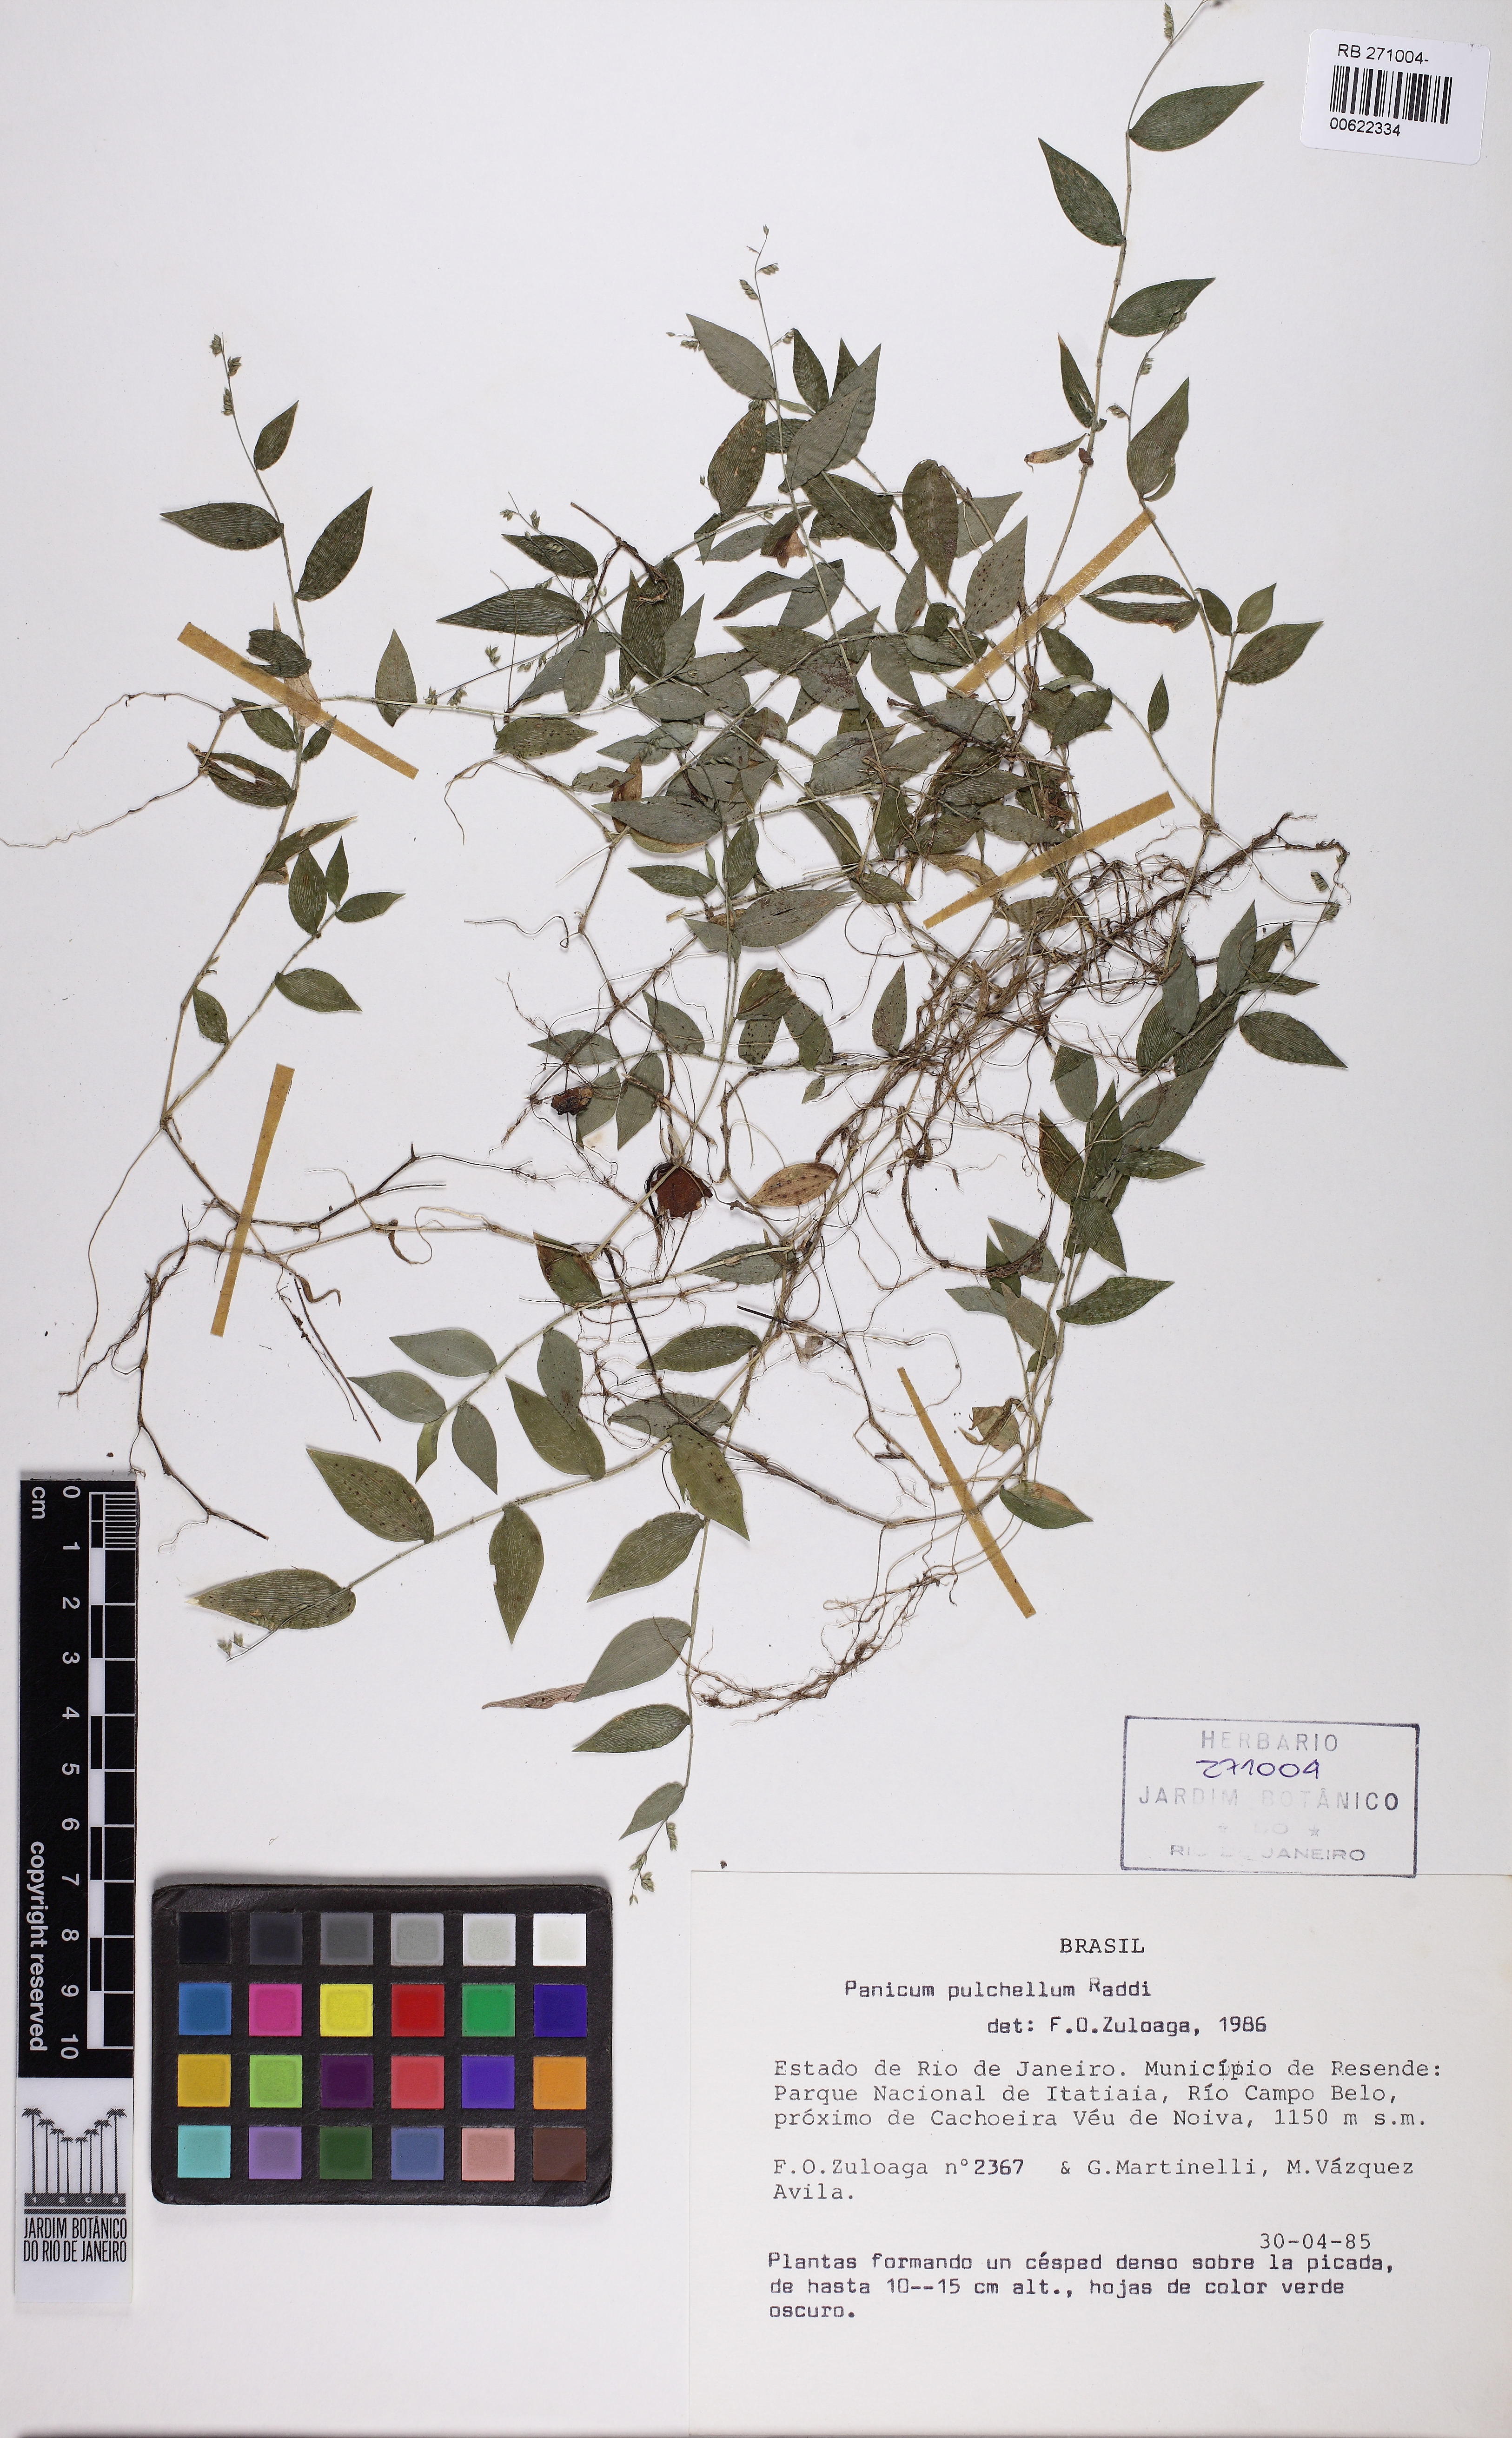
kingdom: Plantae
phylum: Tracheophyta
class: Liliopsida
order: Poales
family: Poaceae
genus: Ocellochloa
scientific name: Ocellochloa pulchella
